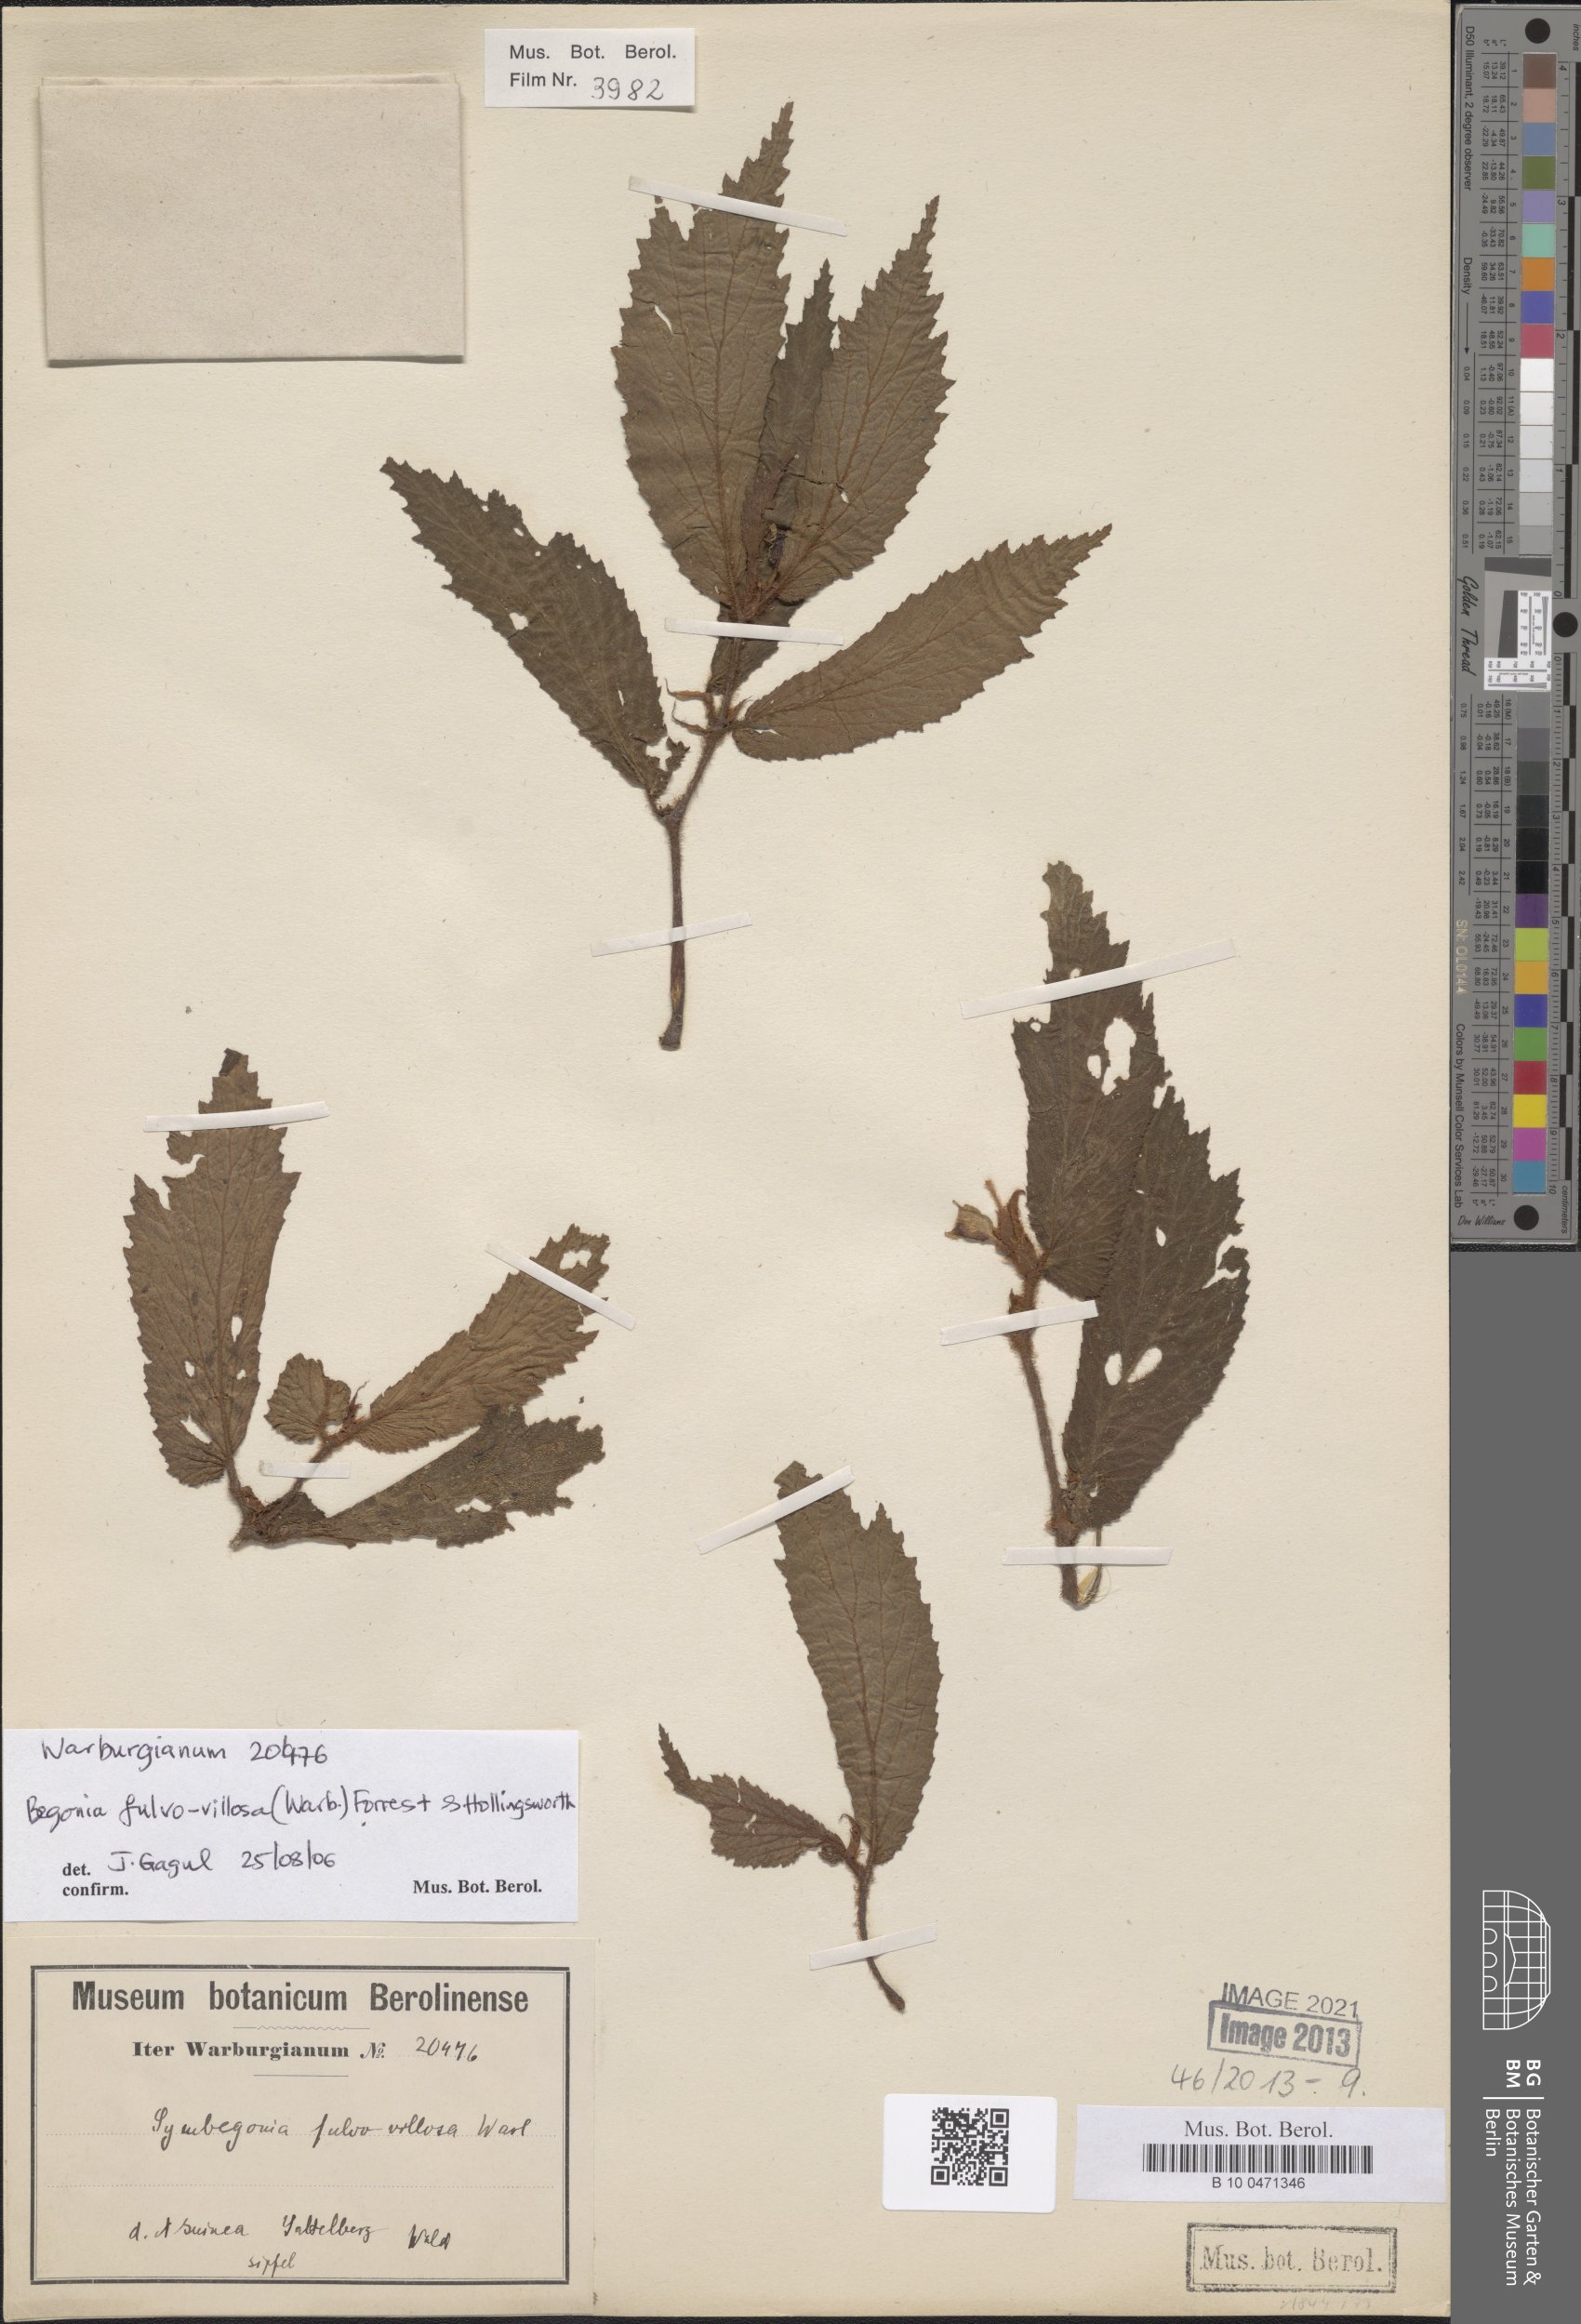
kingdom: Plantae
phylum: Tracheophyta
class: Magnoliopsida
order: Cucurbitales
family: Begoniaceae
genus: Begonia
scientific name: Begonia fulvovillosa
